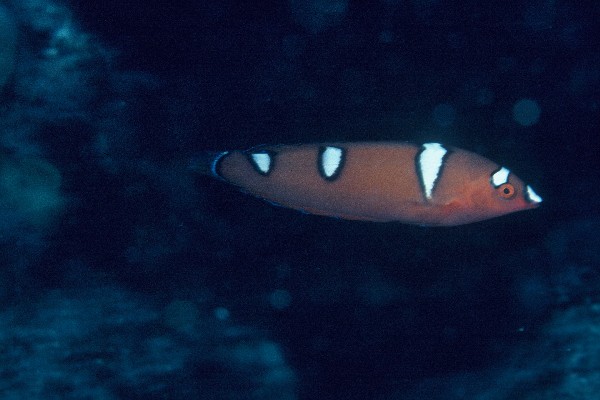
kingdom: Animalia
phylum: Chordata
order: Perciformes
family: Labridae
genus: Coris
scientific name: Coris gaimard
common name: Yellowtail coris
